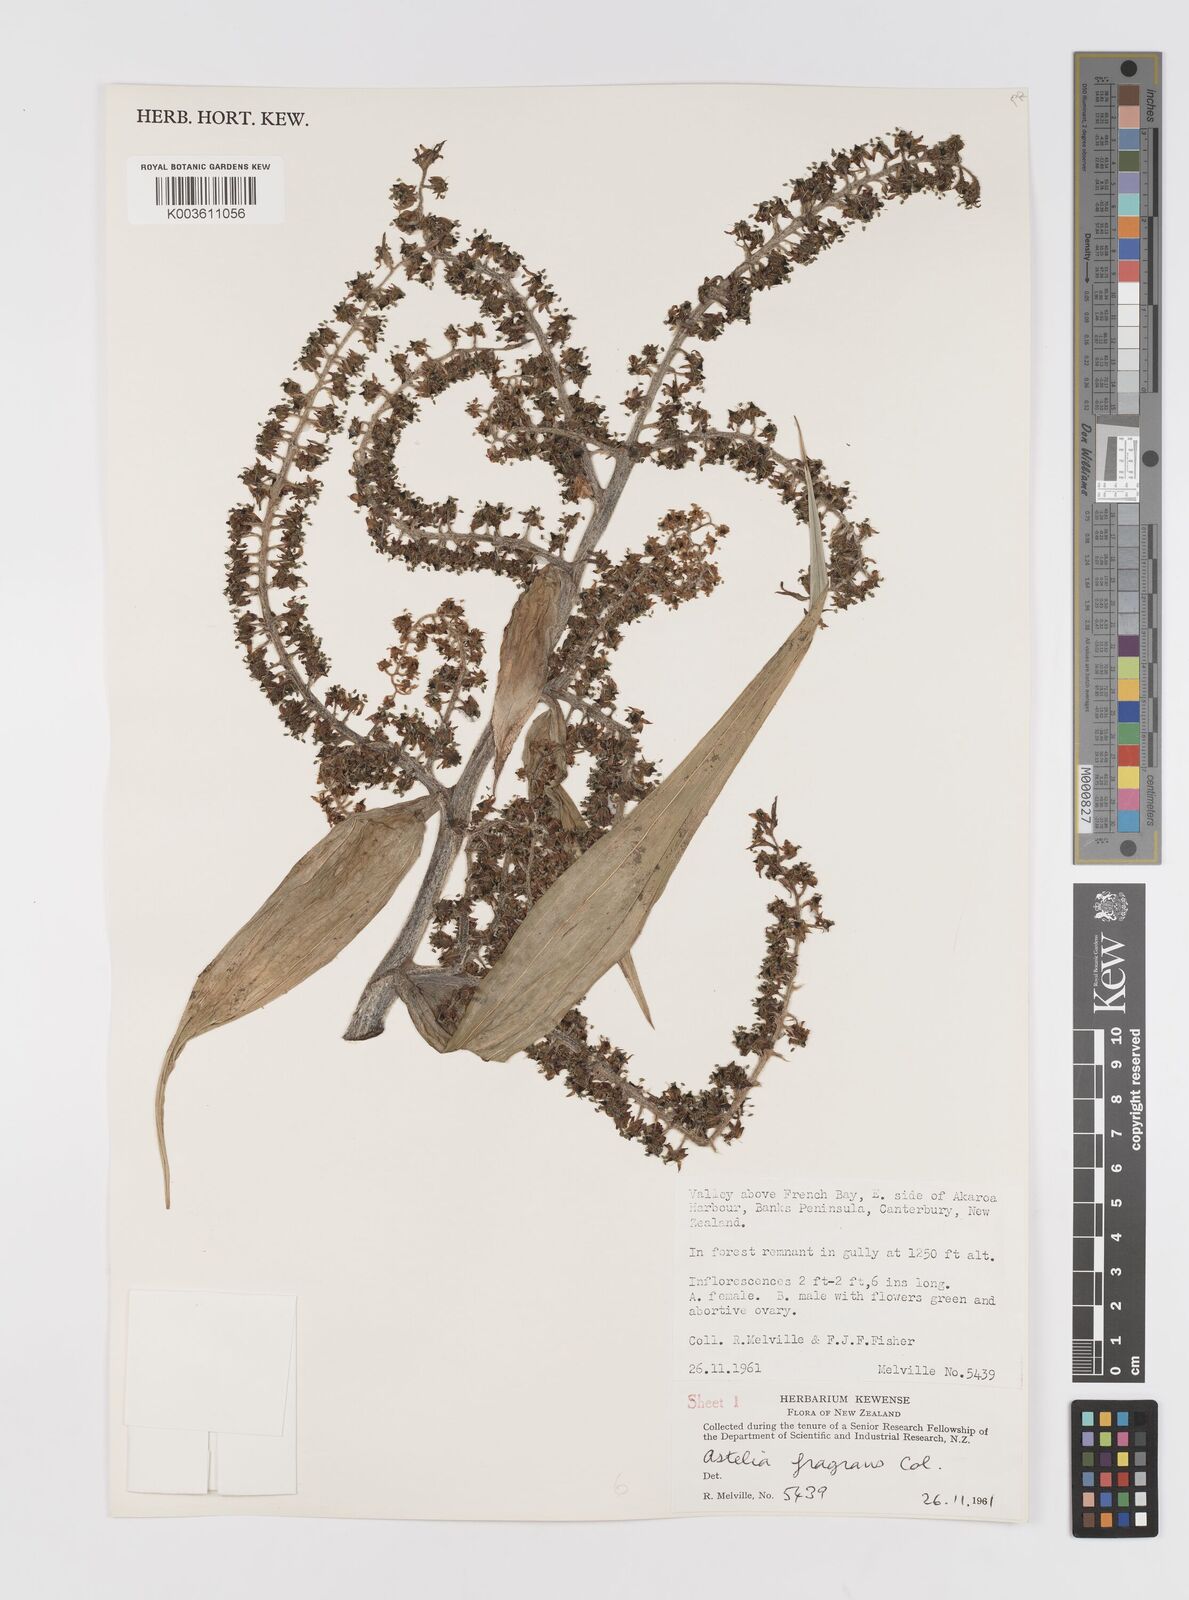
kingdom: Plantae
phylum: Tracheophyta
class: Liliopsida
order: Asparagales
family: Asteliaceae
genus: Astelia
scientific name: Astelia fragrans
